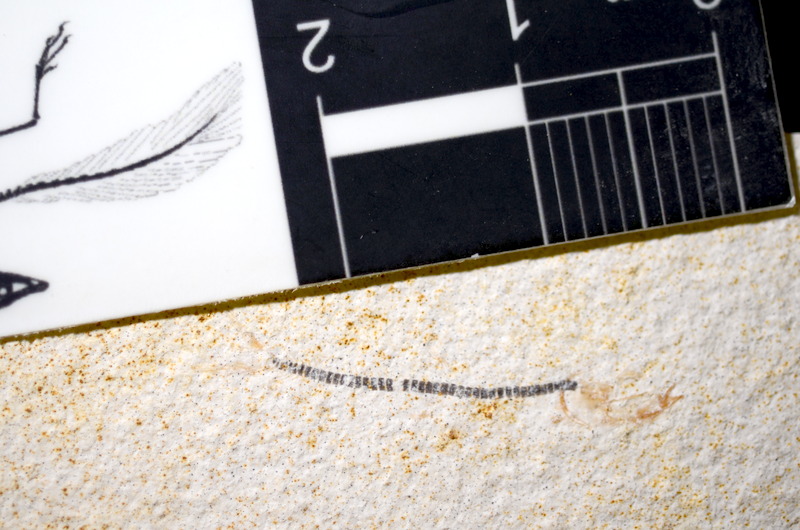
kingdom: Animalia
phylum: Chordata
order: Salmoniformes
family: Orthogonikleithridae
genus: Orthogonikleithrus
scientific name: Orthogonikleithrus hoelli
